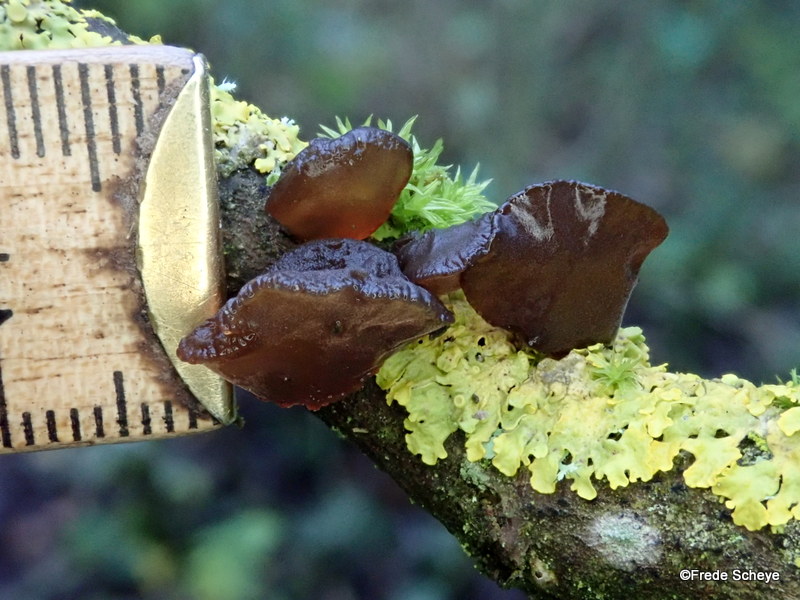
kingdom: Fungi
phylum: Basidiomycota
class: Agaricomycetes
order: Auriculariales
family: Auriculariaceae
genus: Exidia
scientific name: Exidia recisa
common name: pile-bævretop
